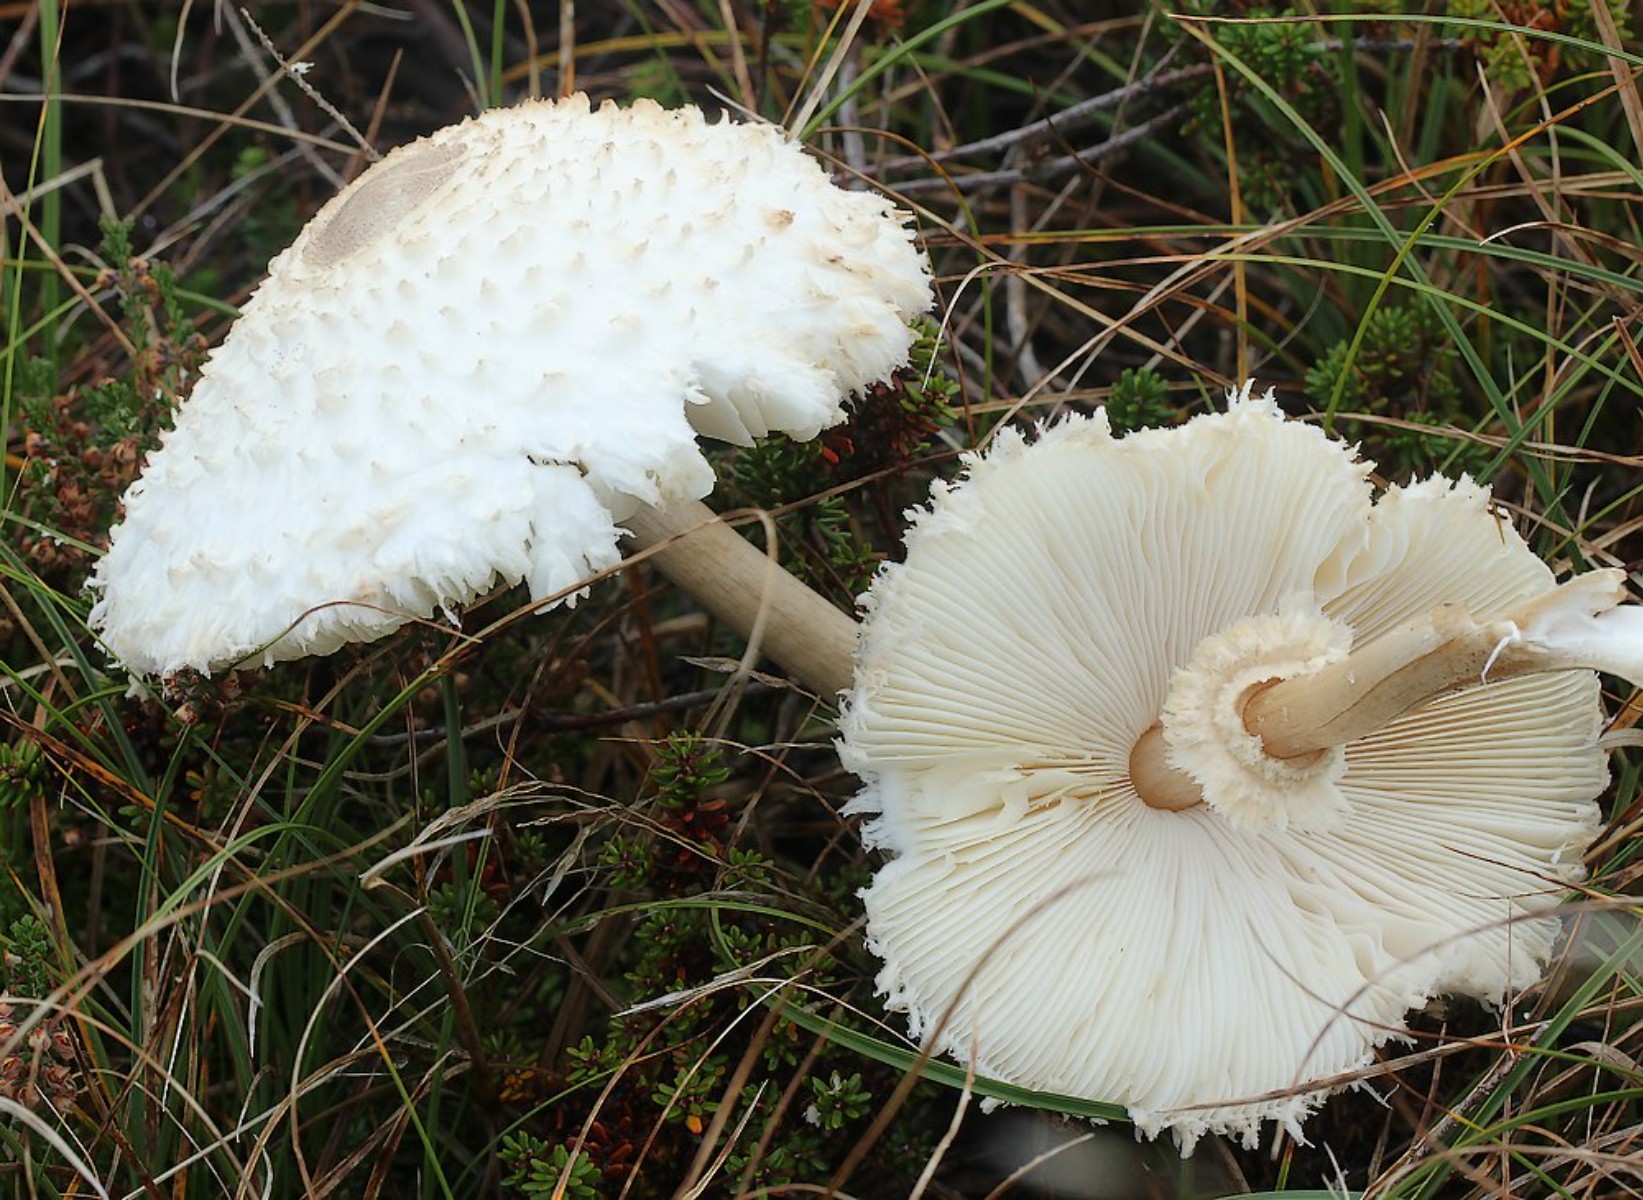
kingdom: Fungi
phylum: Basidiomycota
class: Agaricomycetes
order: Agaricales
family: Agaricaceae
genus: Leucoagaricus
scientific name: Leucoagaricus nympharum
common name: gran-silkehat
